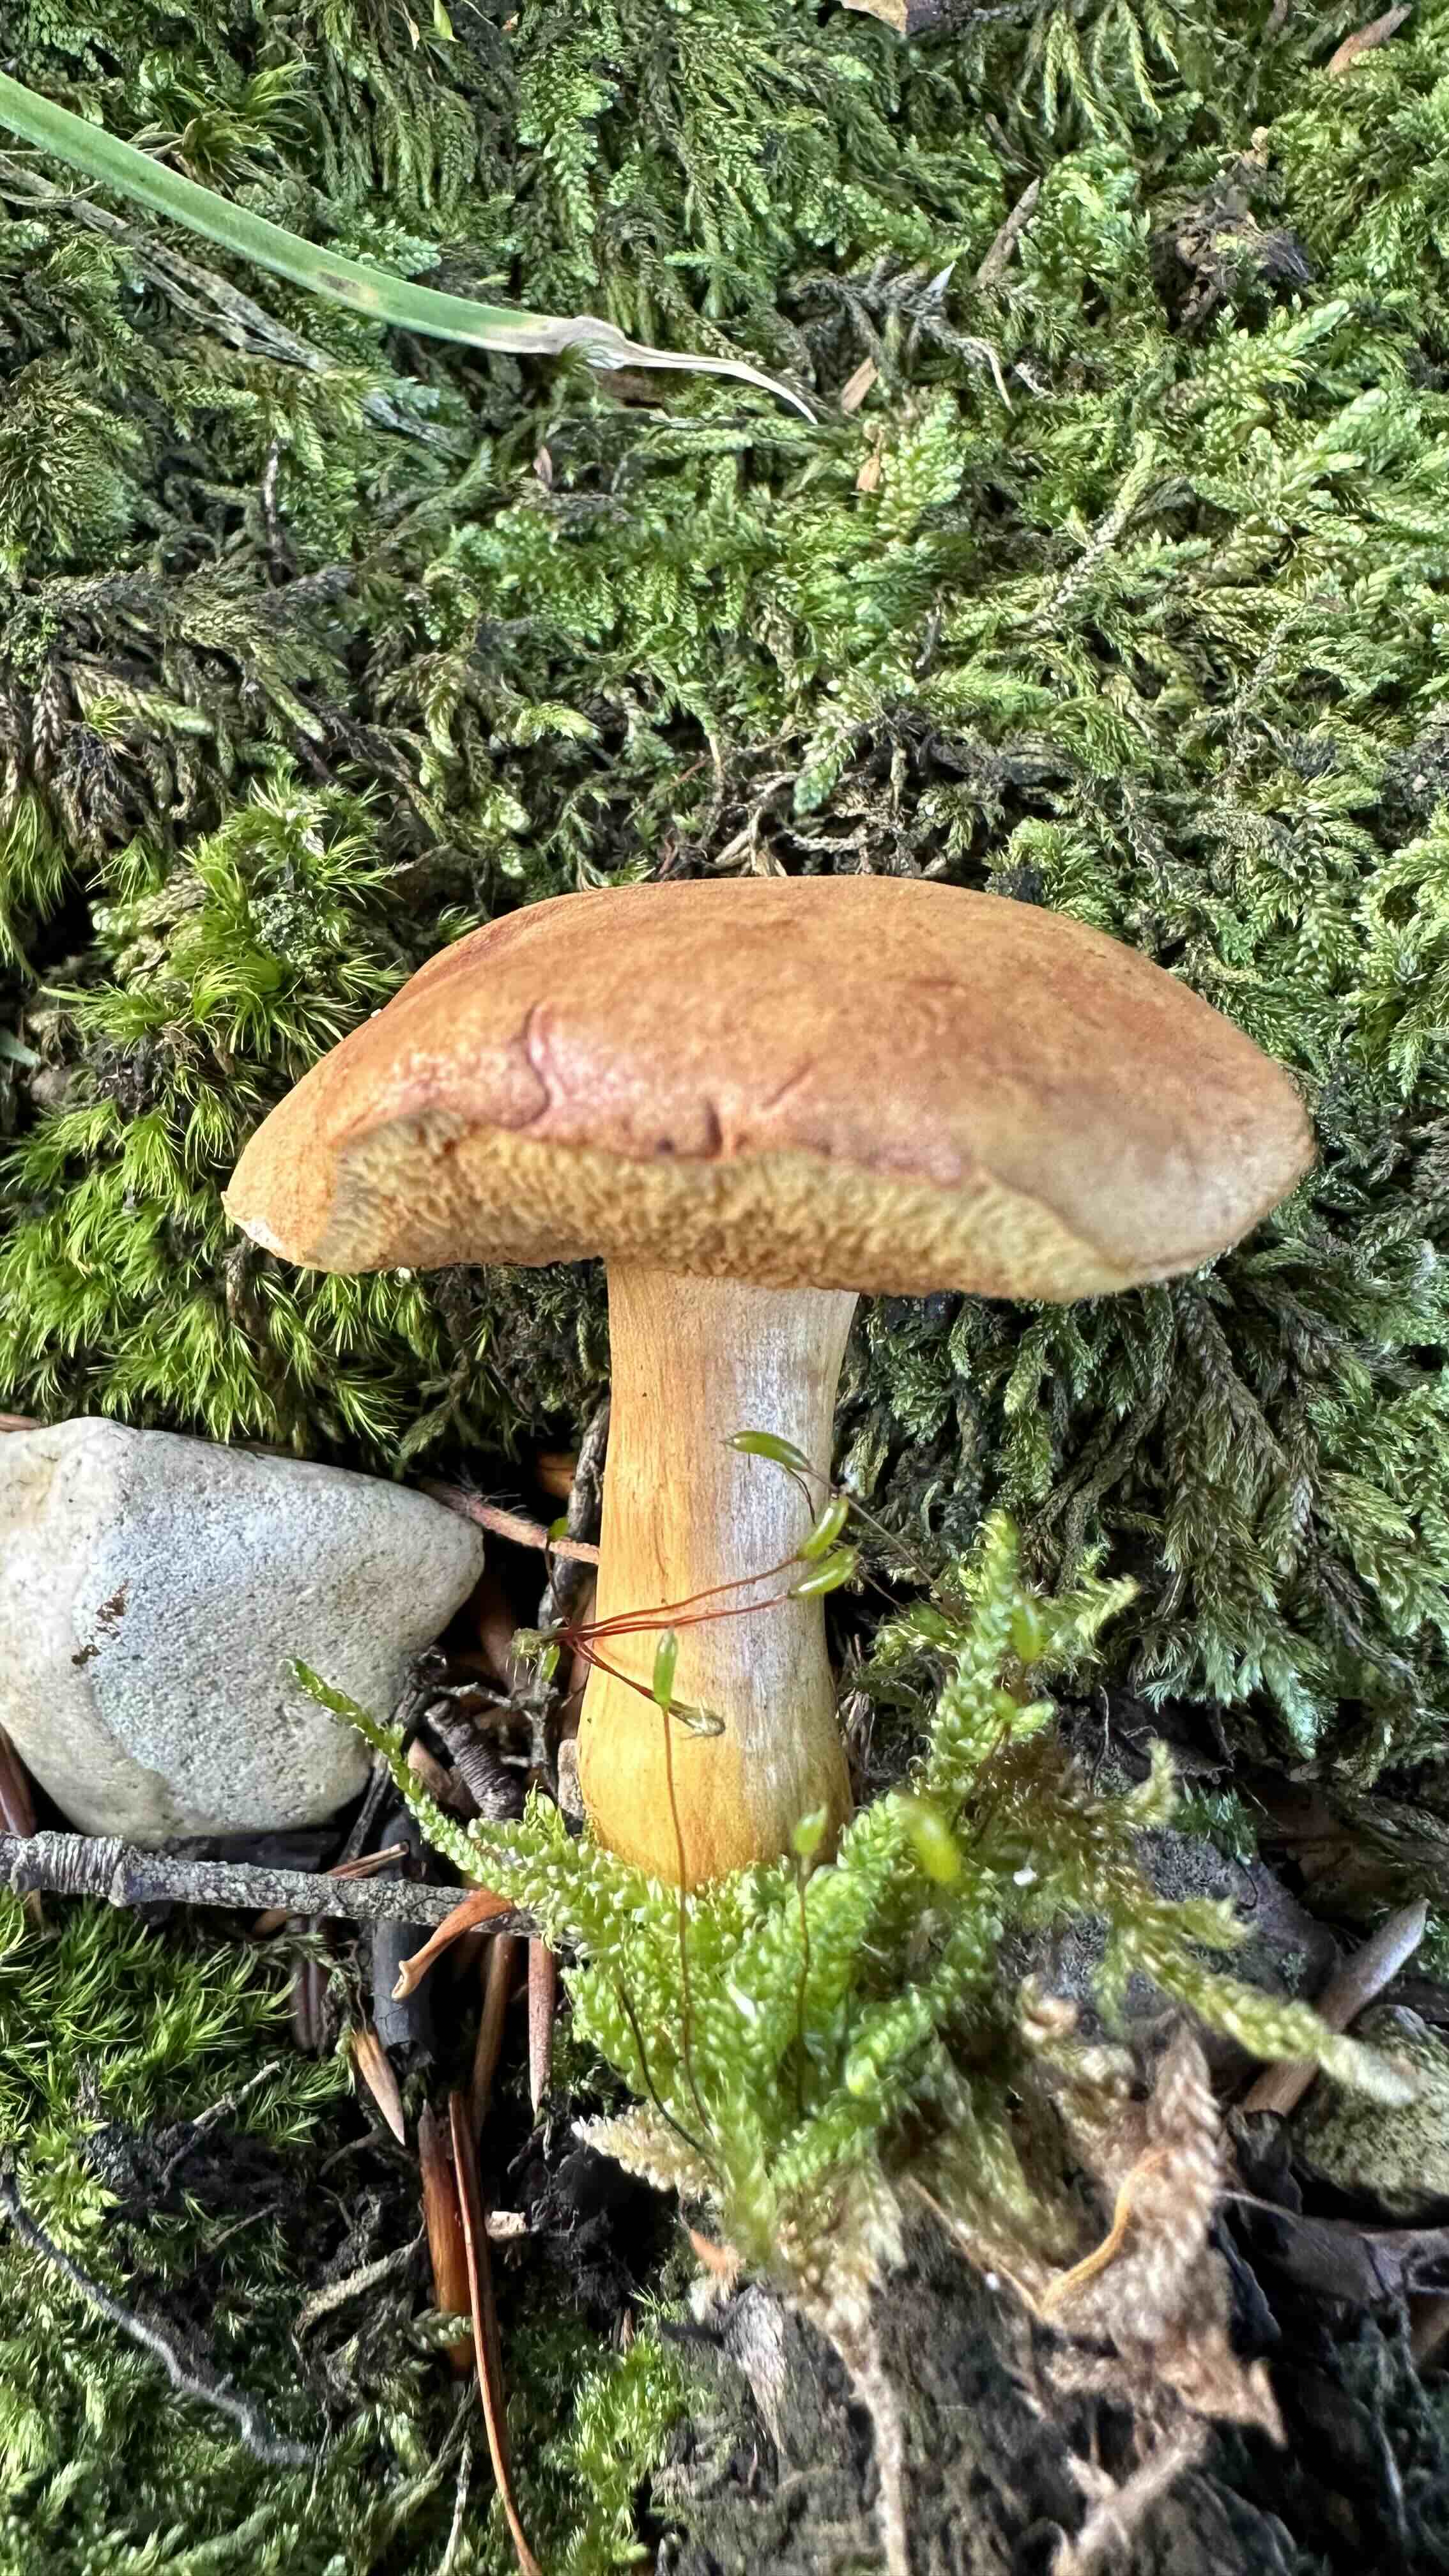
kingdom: Fungi
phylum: Basidiomycota
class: Agaricomycetes
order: Boletales
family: Boletaceae
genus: Chalciporus
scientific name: Chalciporus piperatus
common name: peberrørhat
